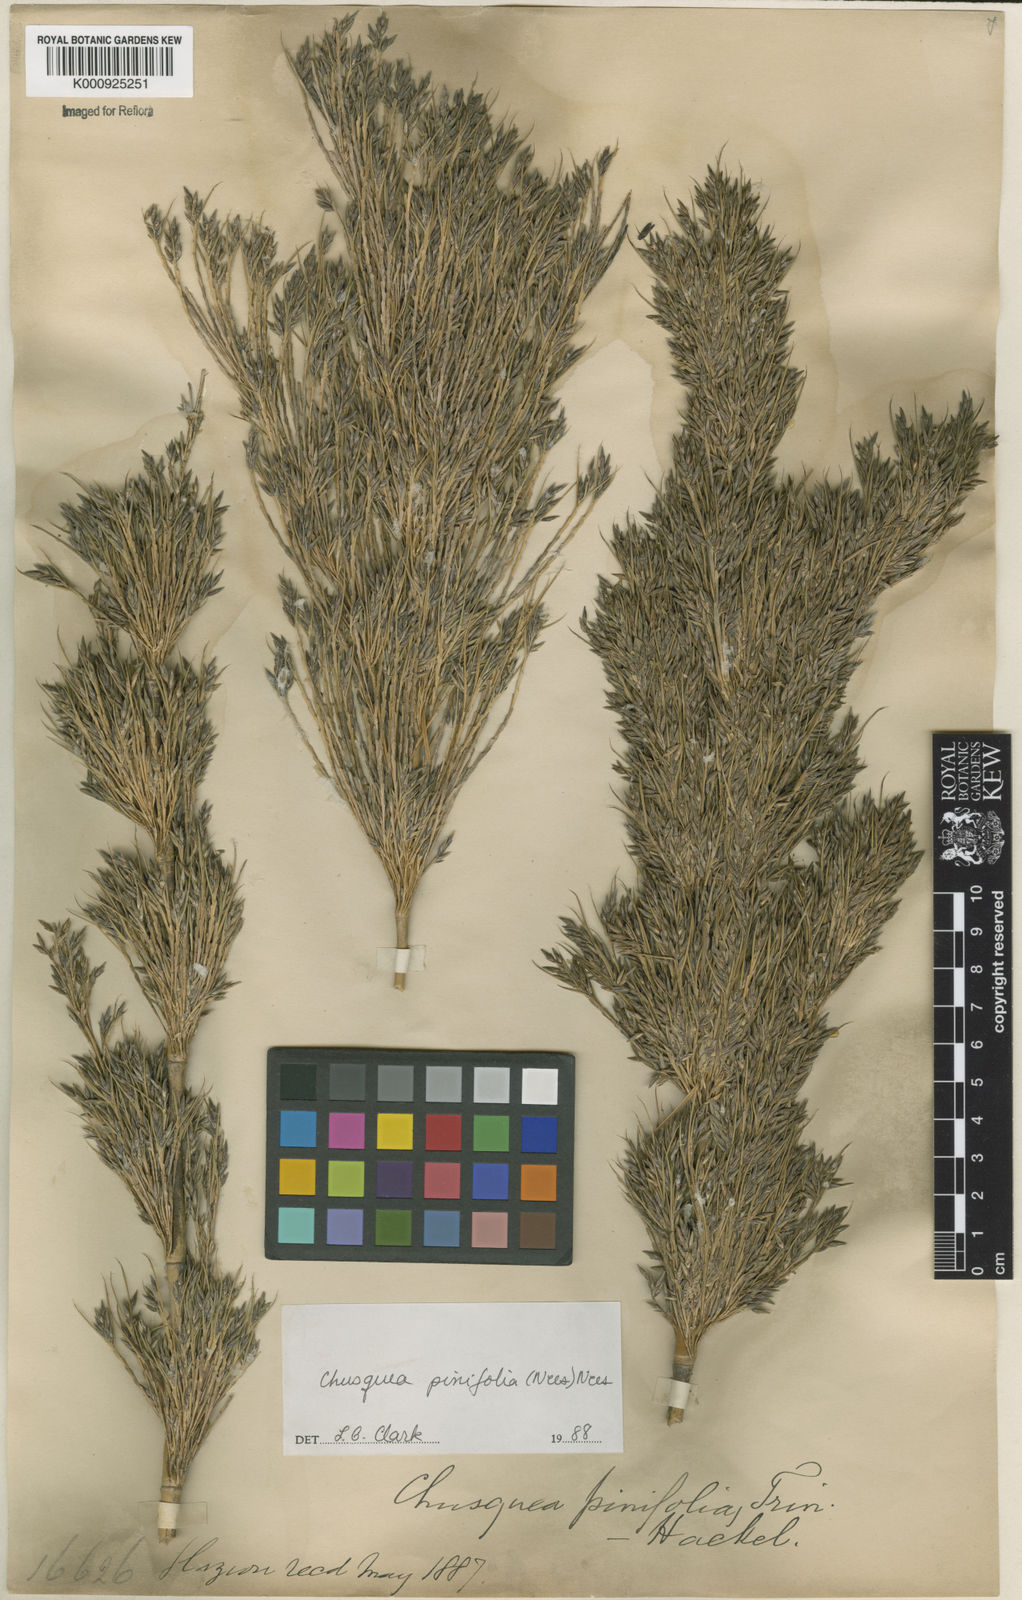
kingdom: Plantae
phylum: Tracheophyta
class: Liliopsida
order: Poales
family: Poaceae
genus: Chusquea
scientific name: Chusquea pinifolia
